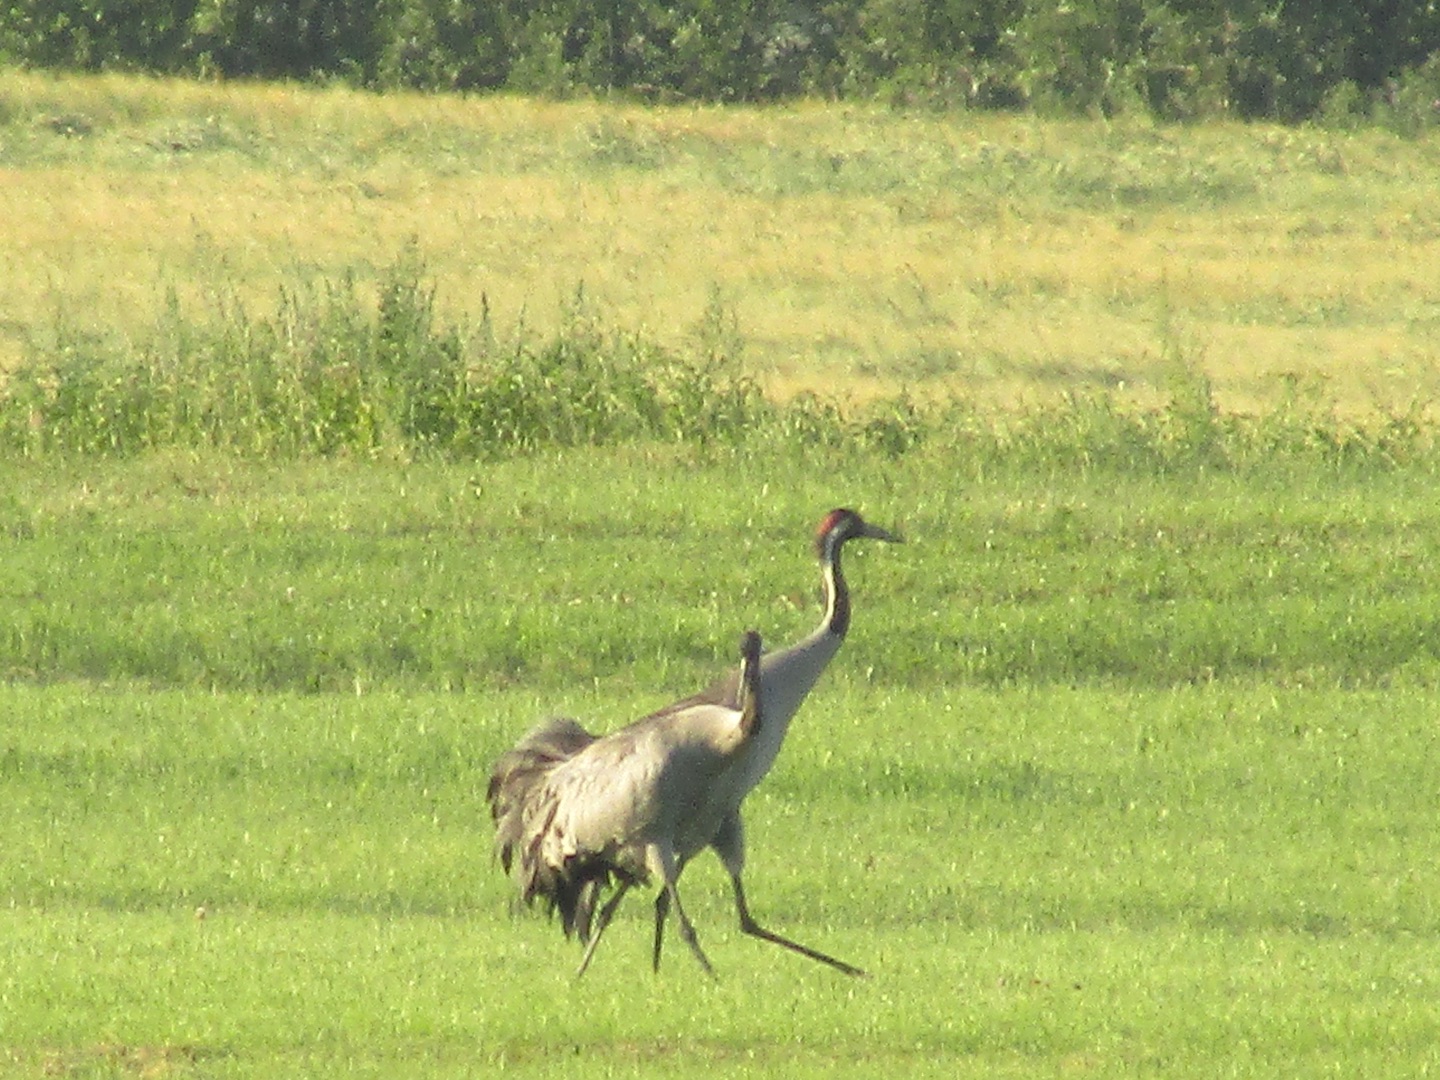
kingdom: Animalia
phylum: Chordata
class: Aves
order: Gruiformes
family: Gruidae
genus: Grus
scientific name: Grus grus
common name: Trane
